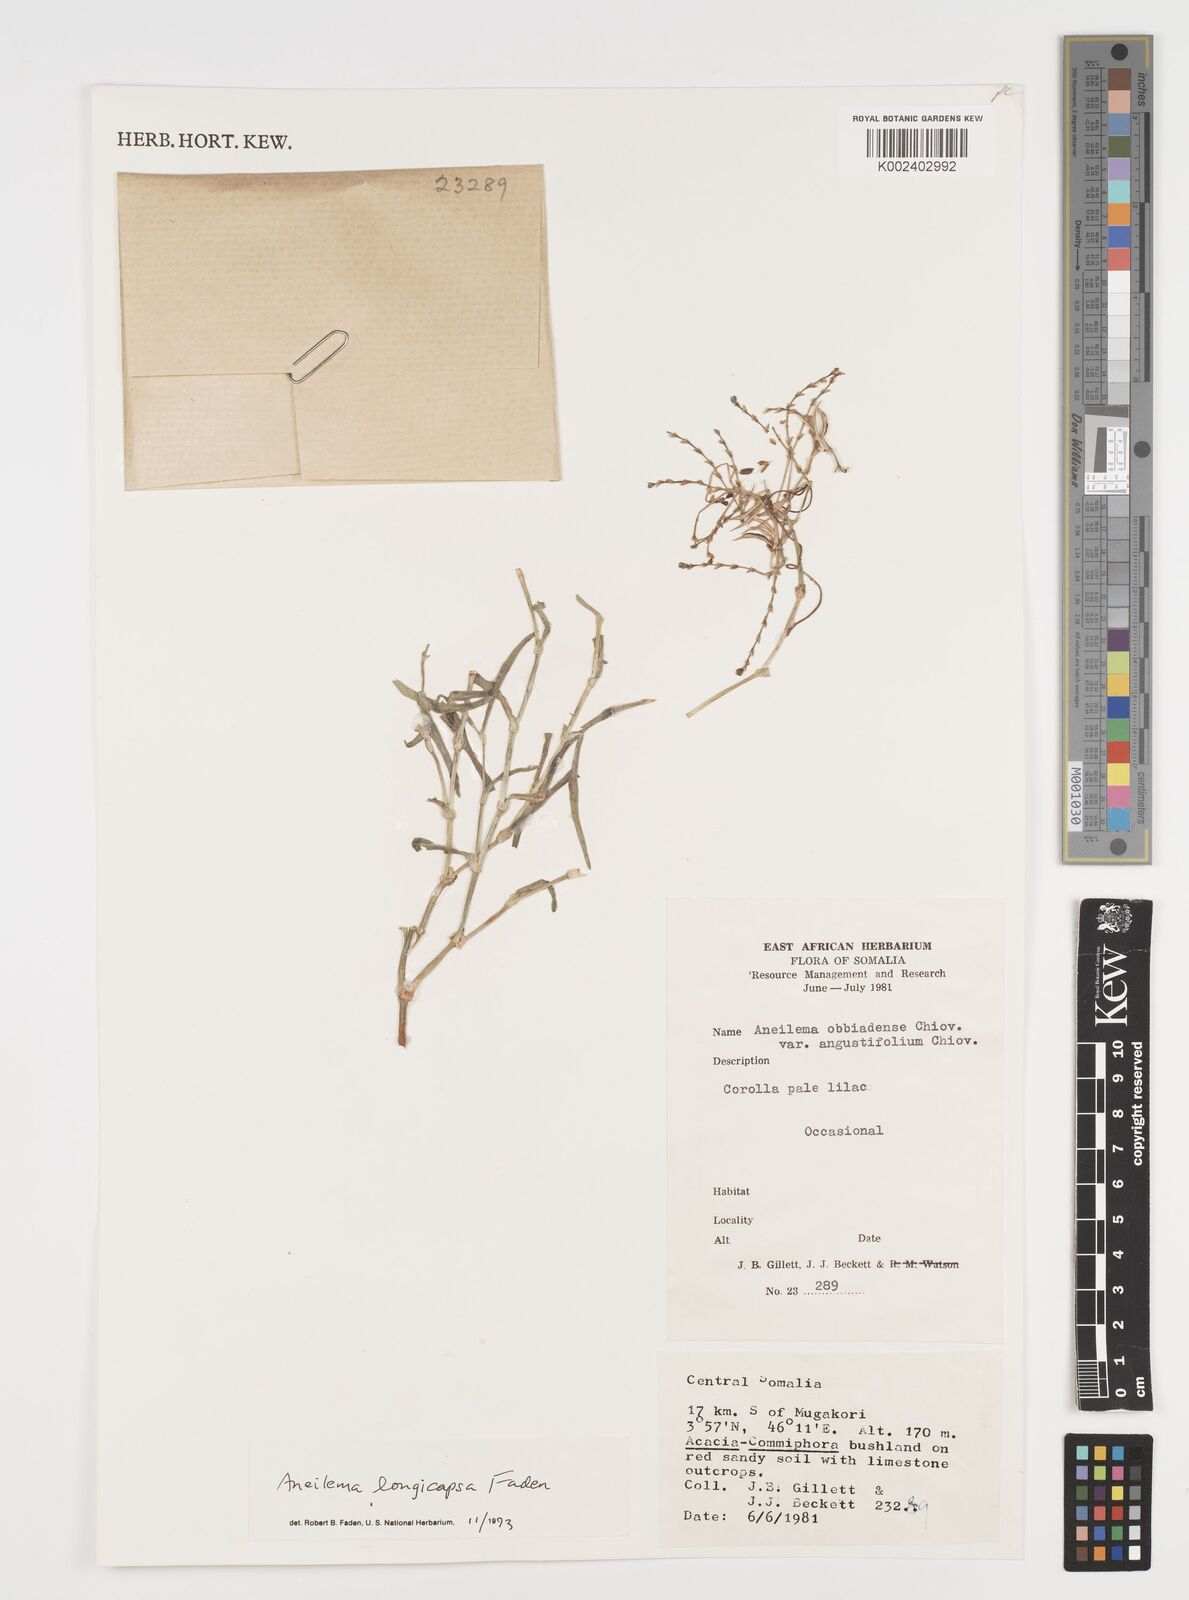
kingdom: Plantae
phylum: Tracheophyta
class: Liliopsida
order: Commelinales
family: Commelinaceae
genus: Aneilema
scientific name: Aneilema longicapsa
